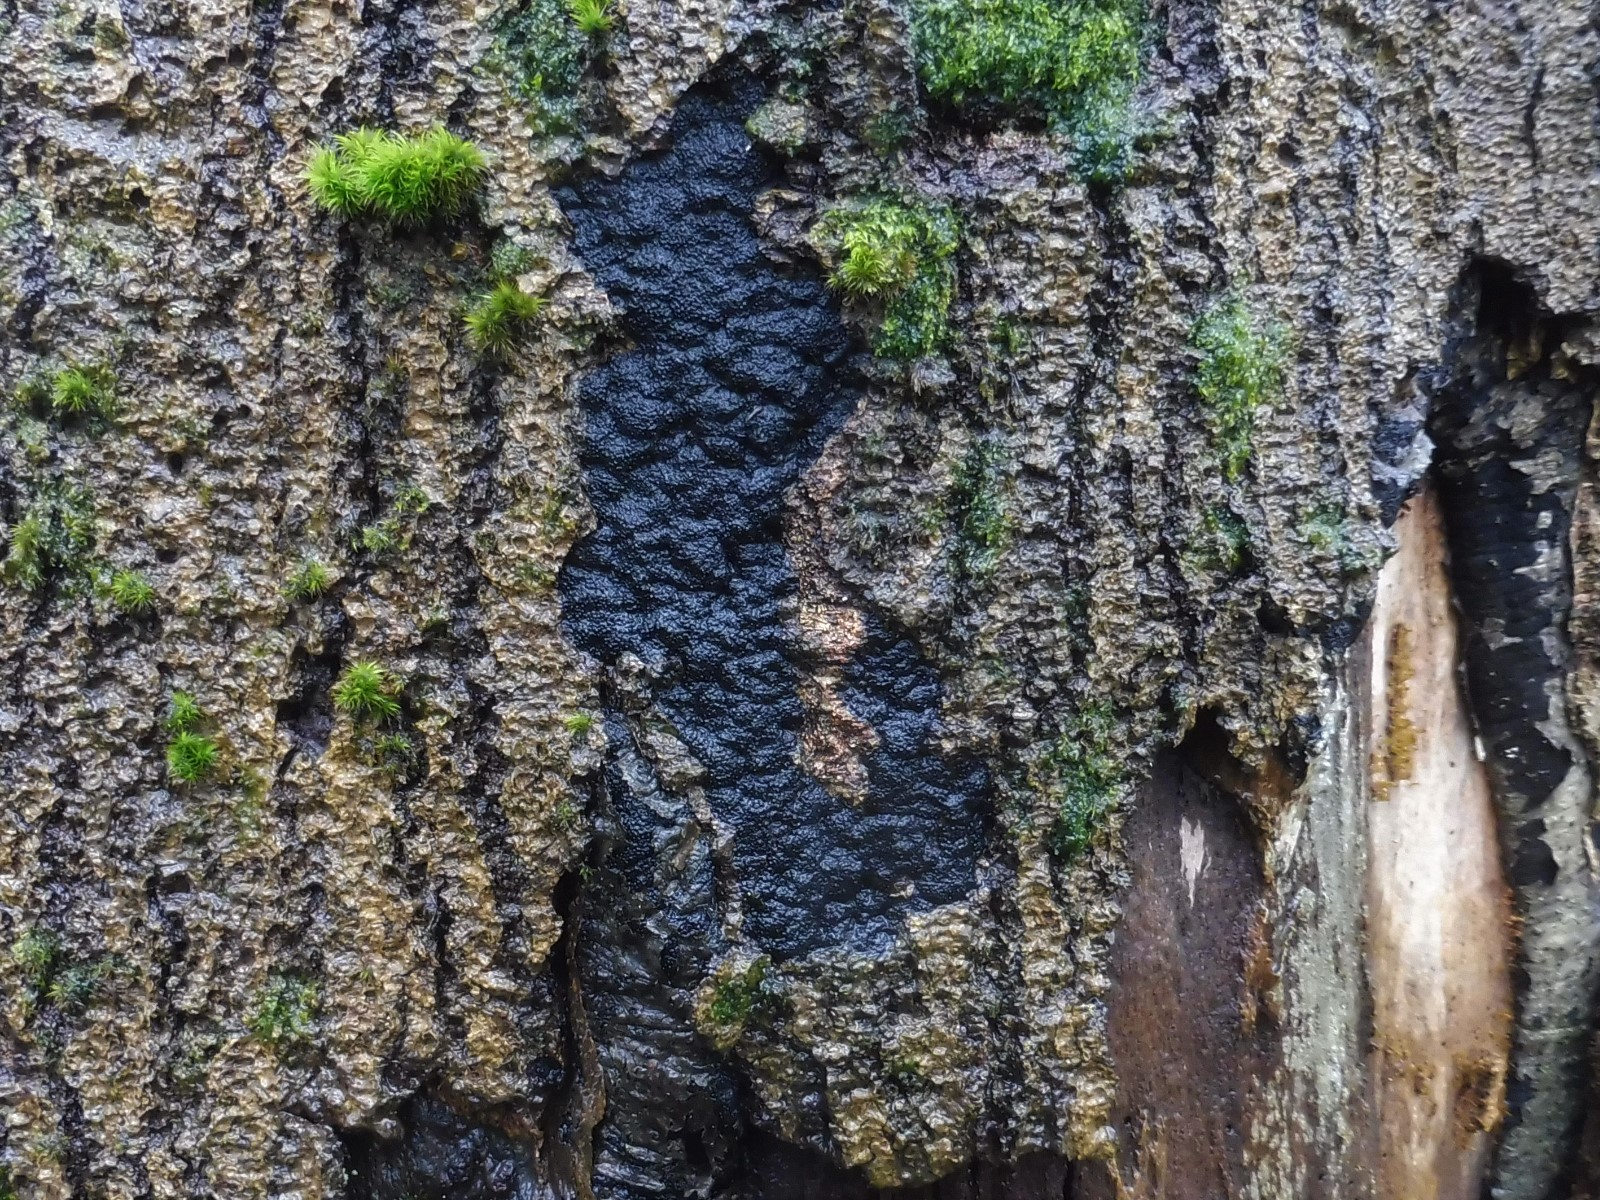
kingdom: Fungi
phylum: Ascomycota
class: Sordariomycetes
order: Xylariales
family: Diatrypaceae
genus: Eutypa
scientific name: Eutypa spinosa
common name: grov kulskorpe
